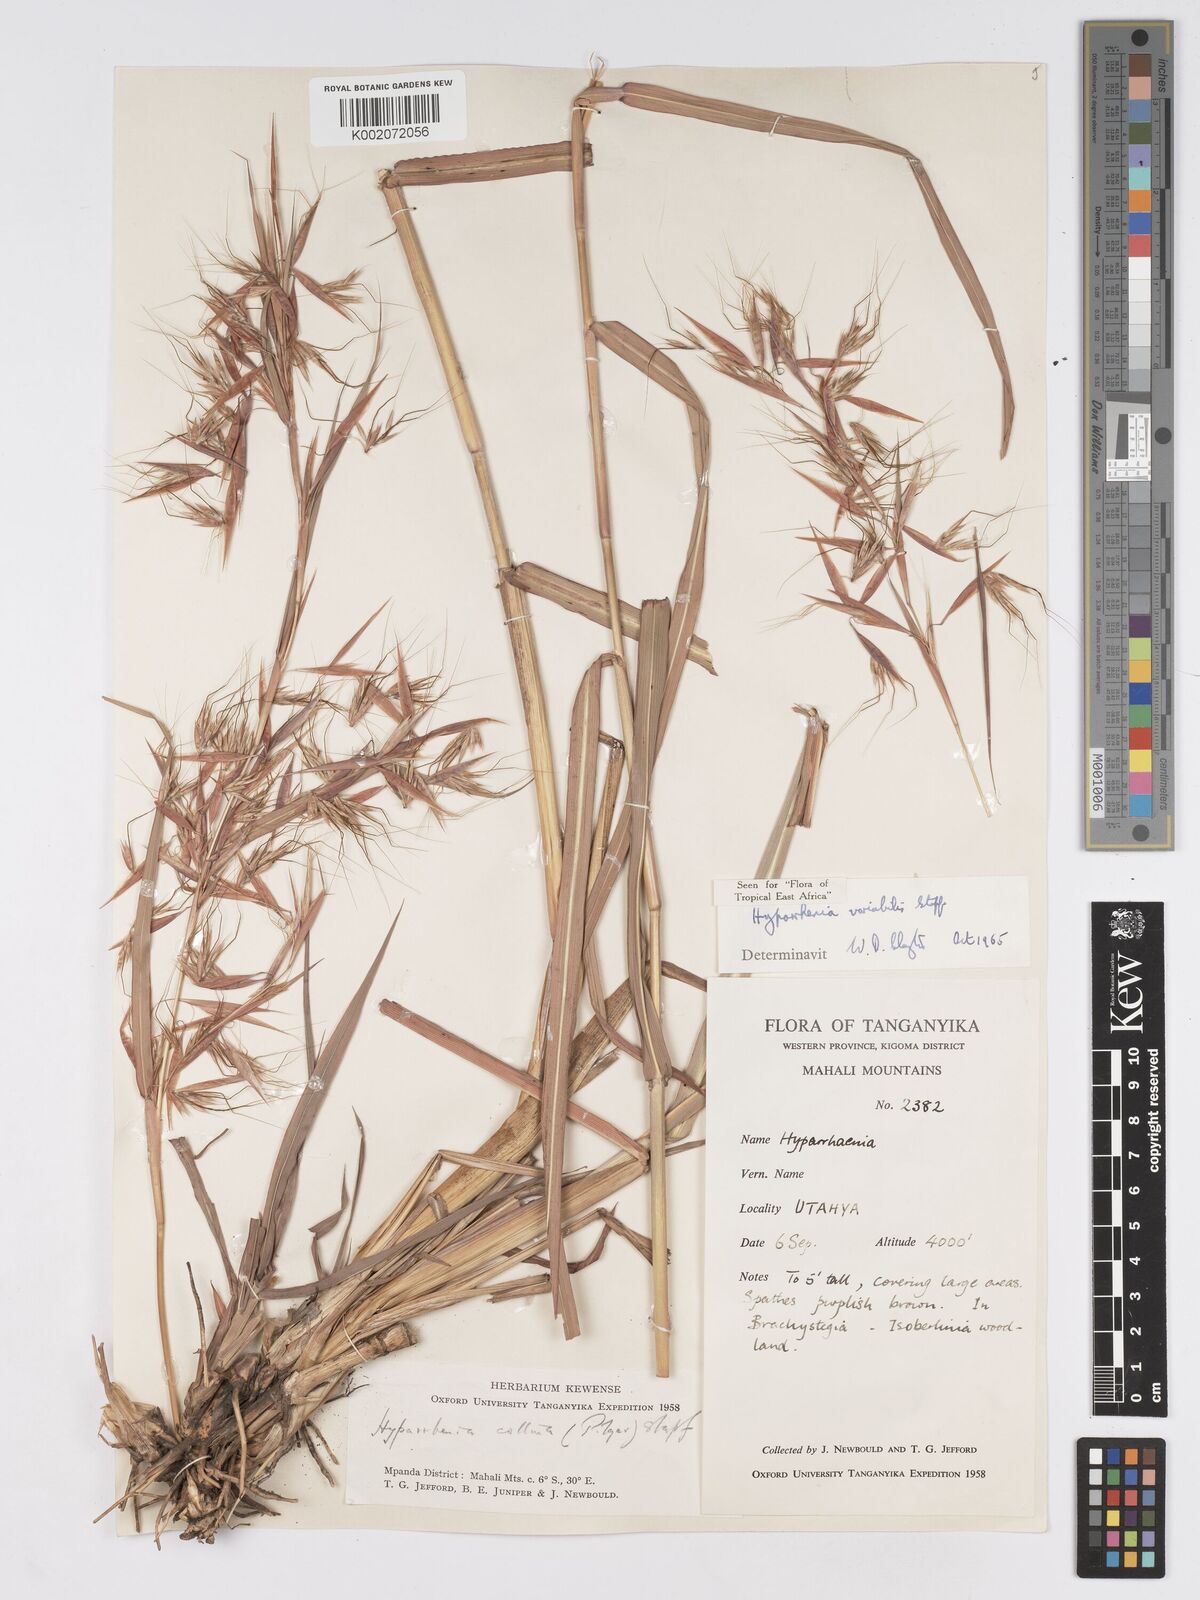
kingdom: Plantae
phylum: Tracheophyta
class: Liliopsida
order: Poales
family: Poaceae
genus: Hyparrhenia
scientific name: Hyparrhenia variabilis
